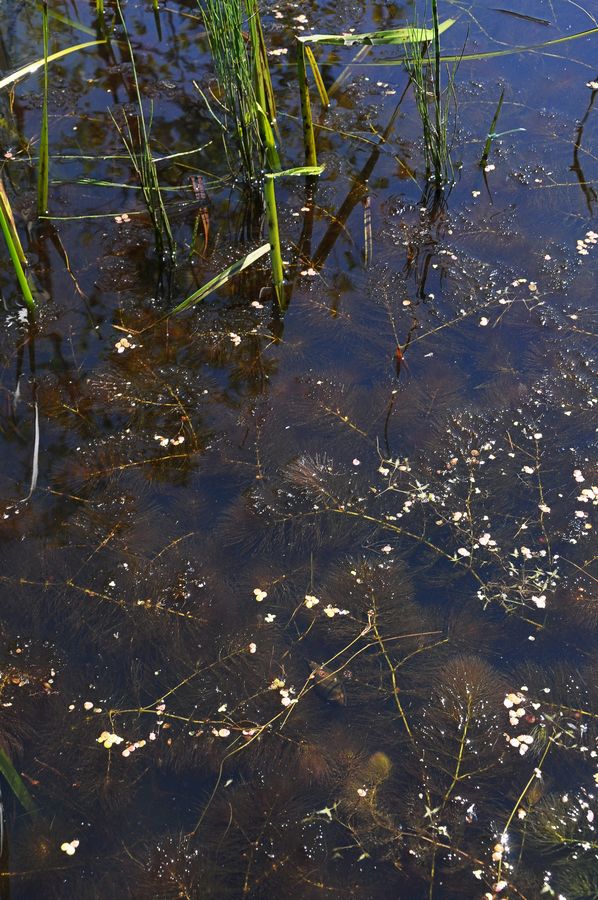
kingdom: Plantae
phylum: Tracheophyta
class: Magnoliopsida
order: Ceratophyllales
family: Ceratophyllaceae
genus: Ceratophyllum
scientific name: Ceratophyllum demersum
